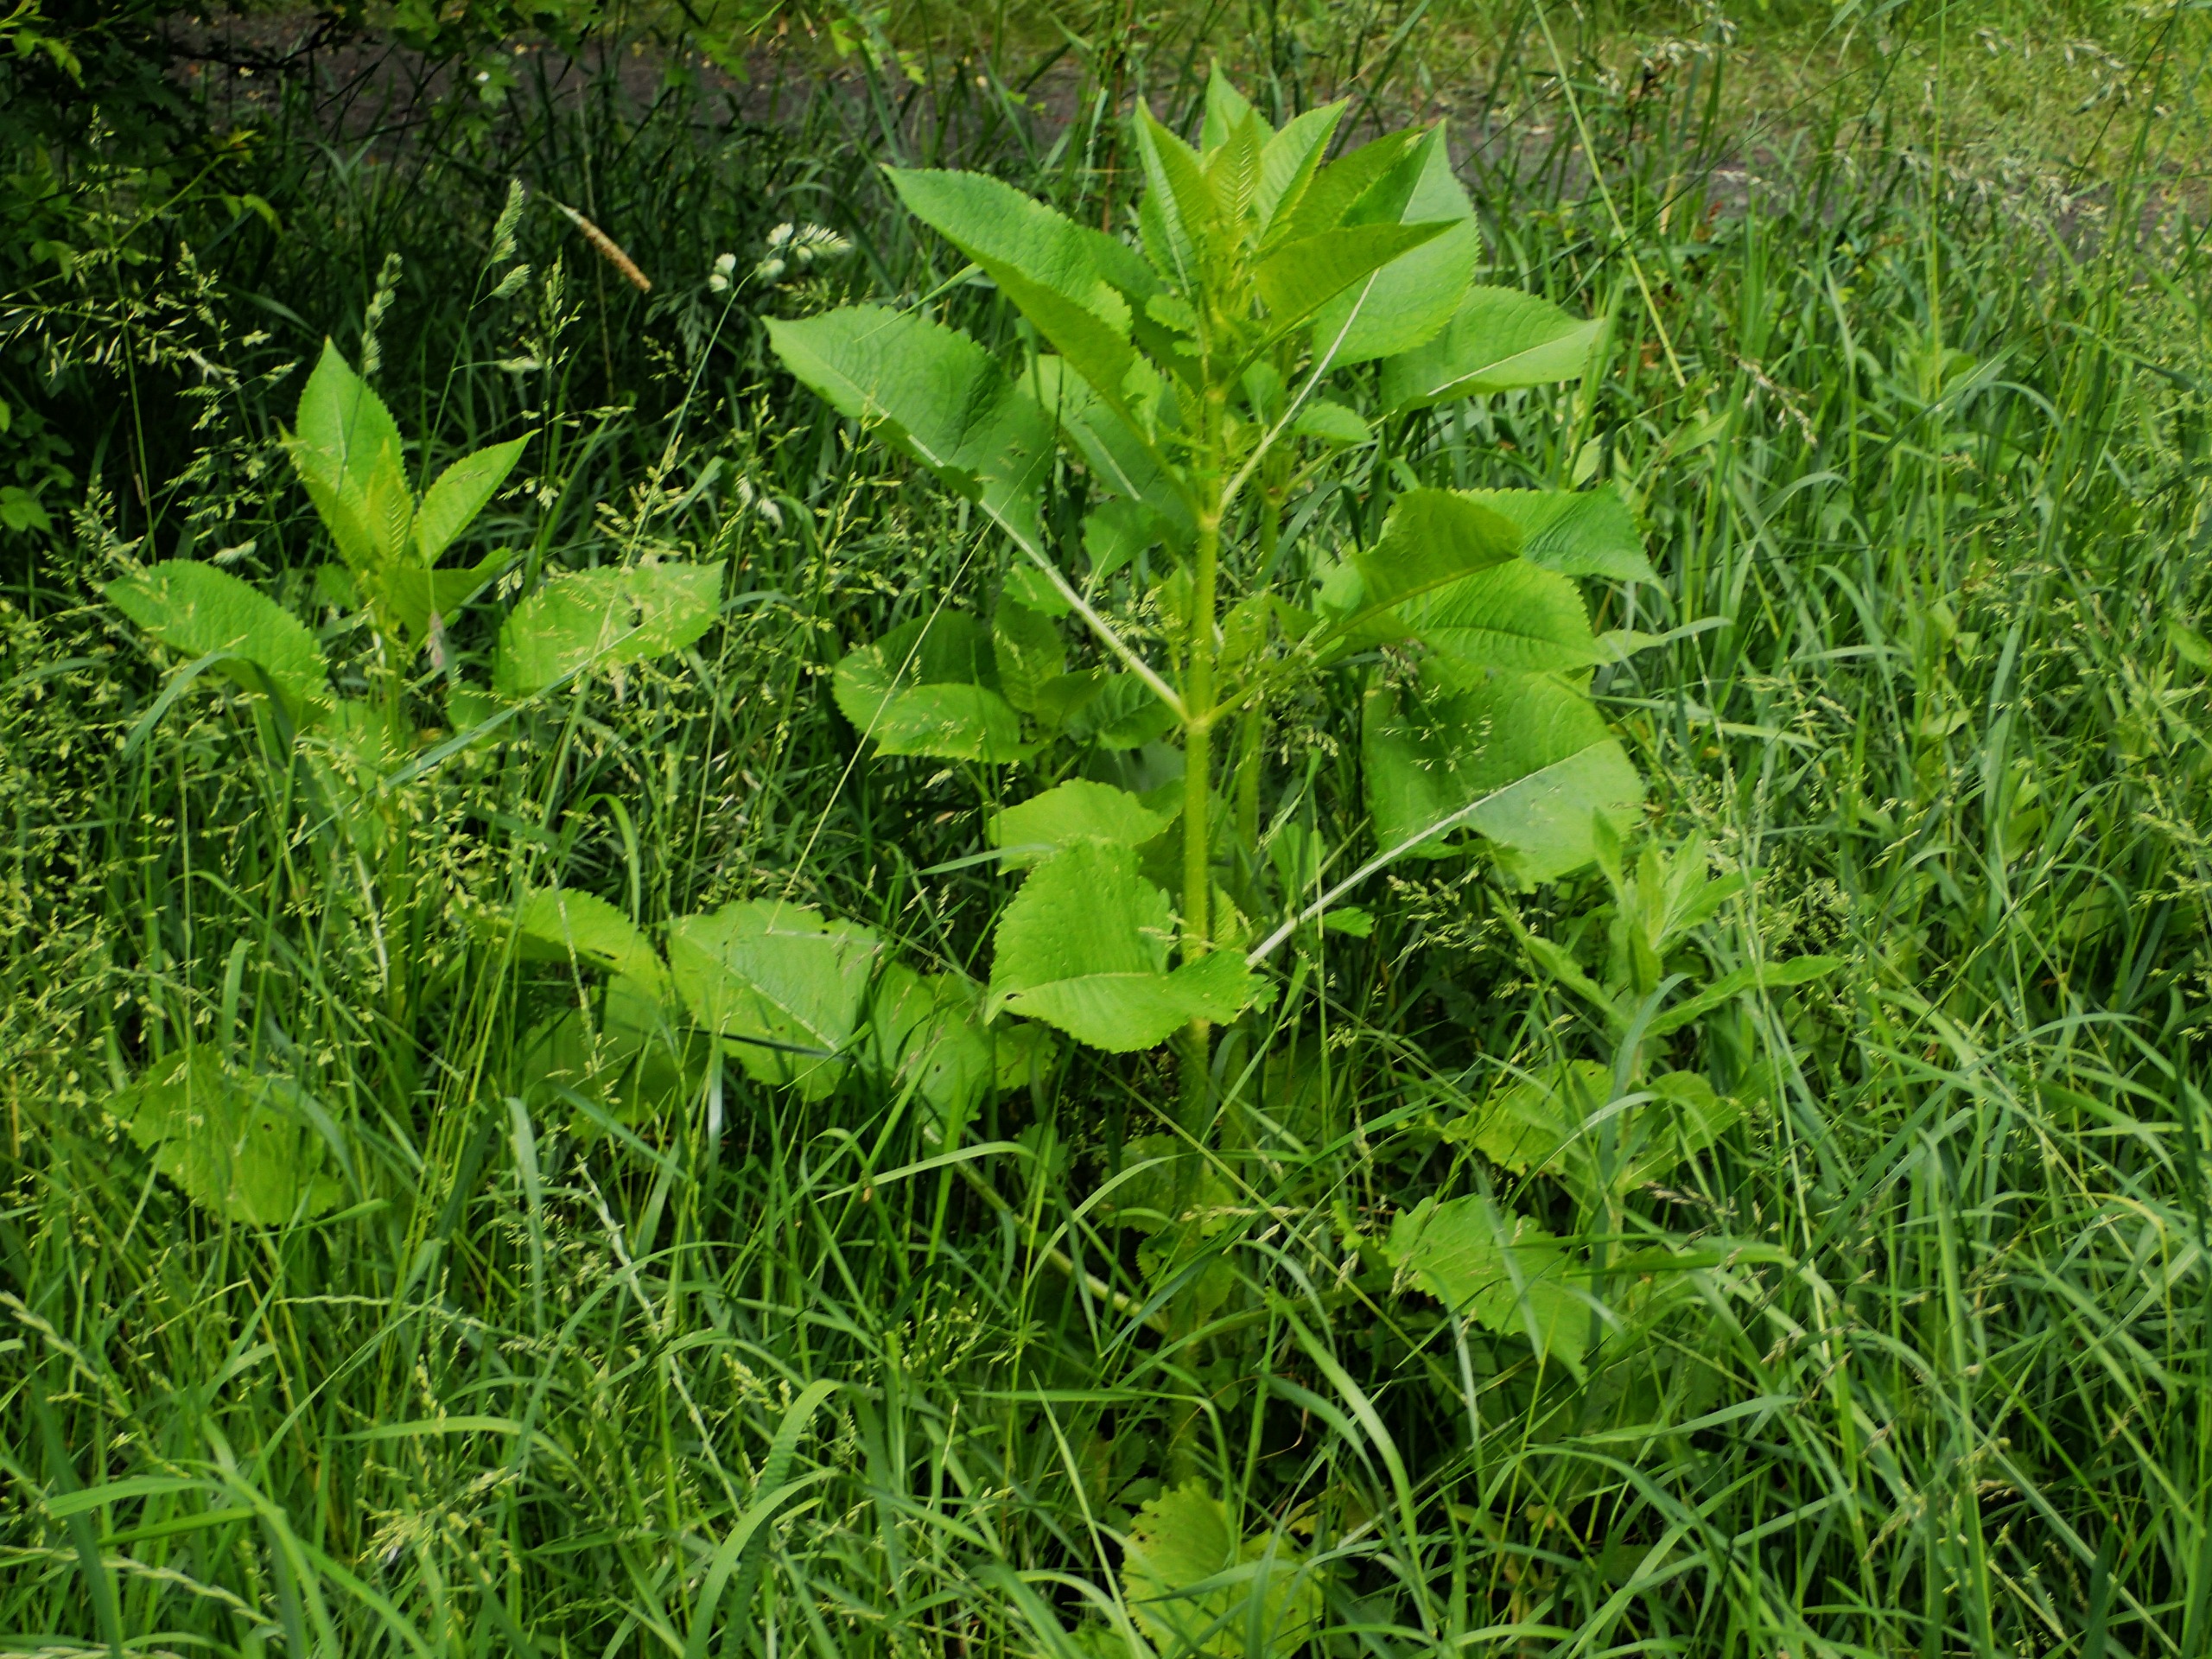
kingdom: Plantae
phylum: Tracheophyta
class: Magnoliopsida
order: Dipsacales
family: Caprifoliaceae
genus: Dipsacus
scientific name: Dipsacus strigosus
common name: Pindsvin-kartebolle
